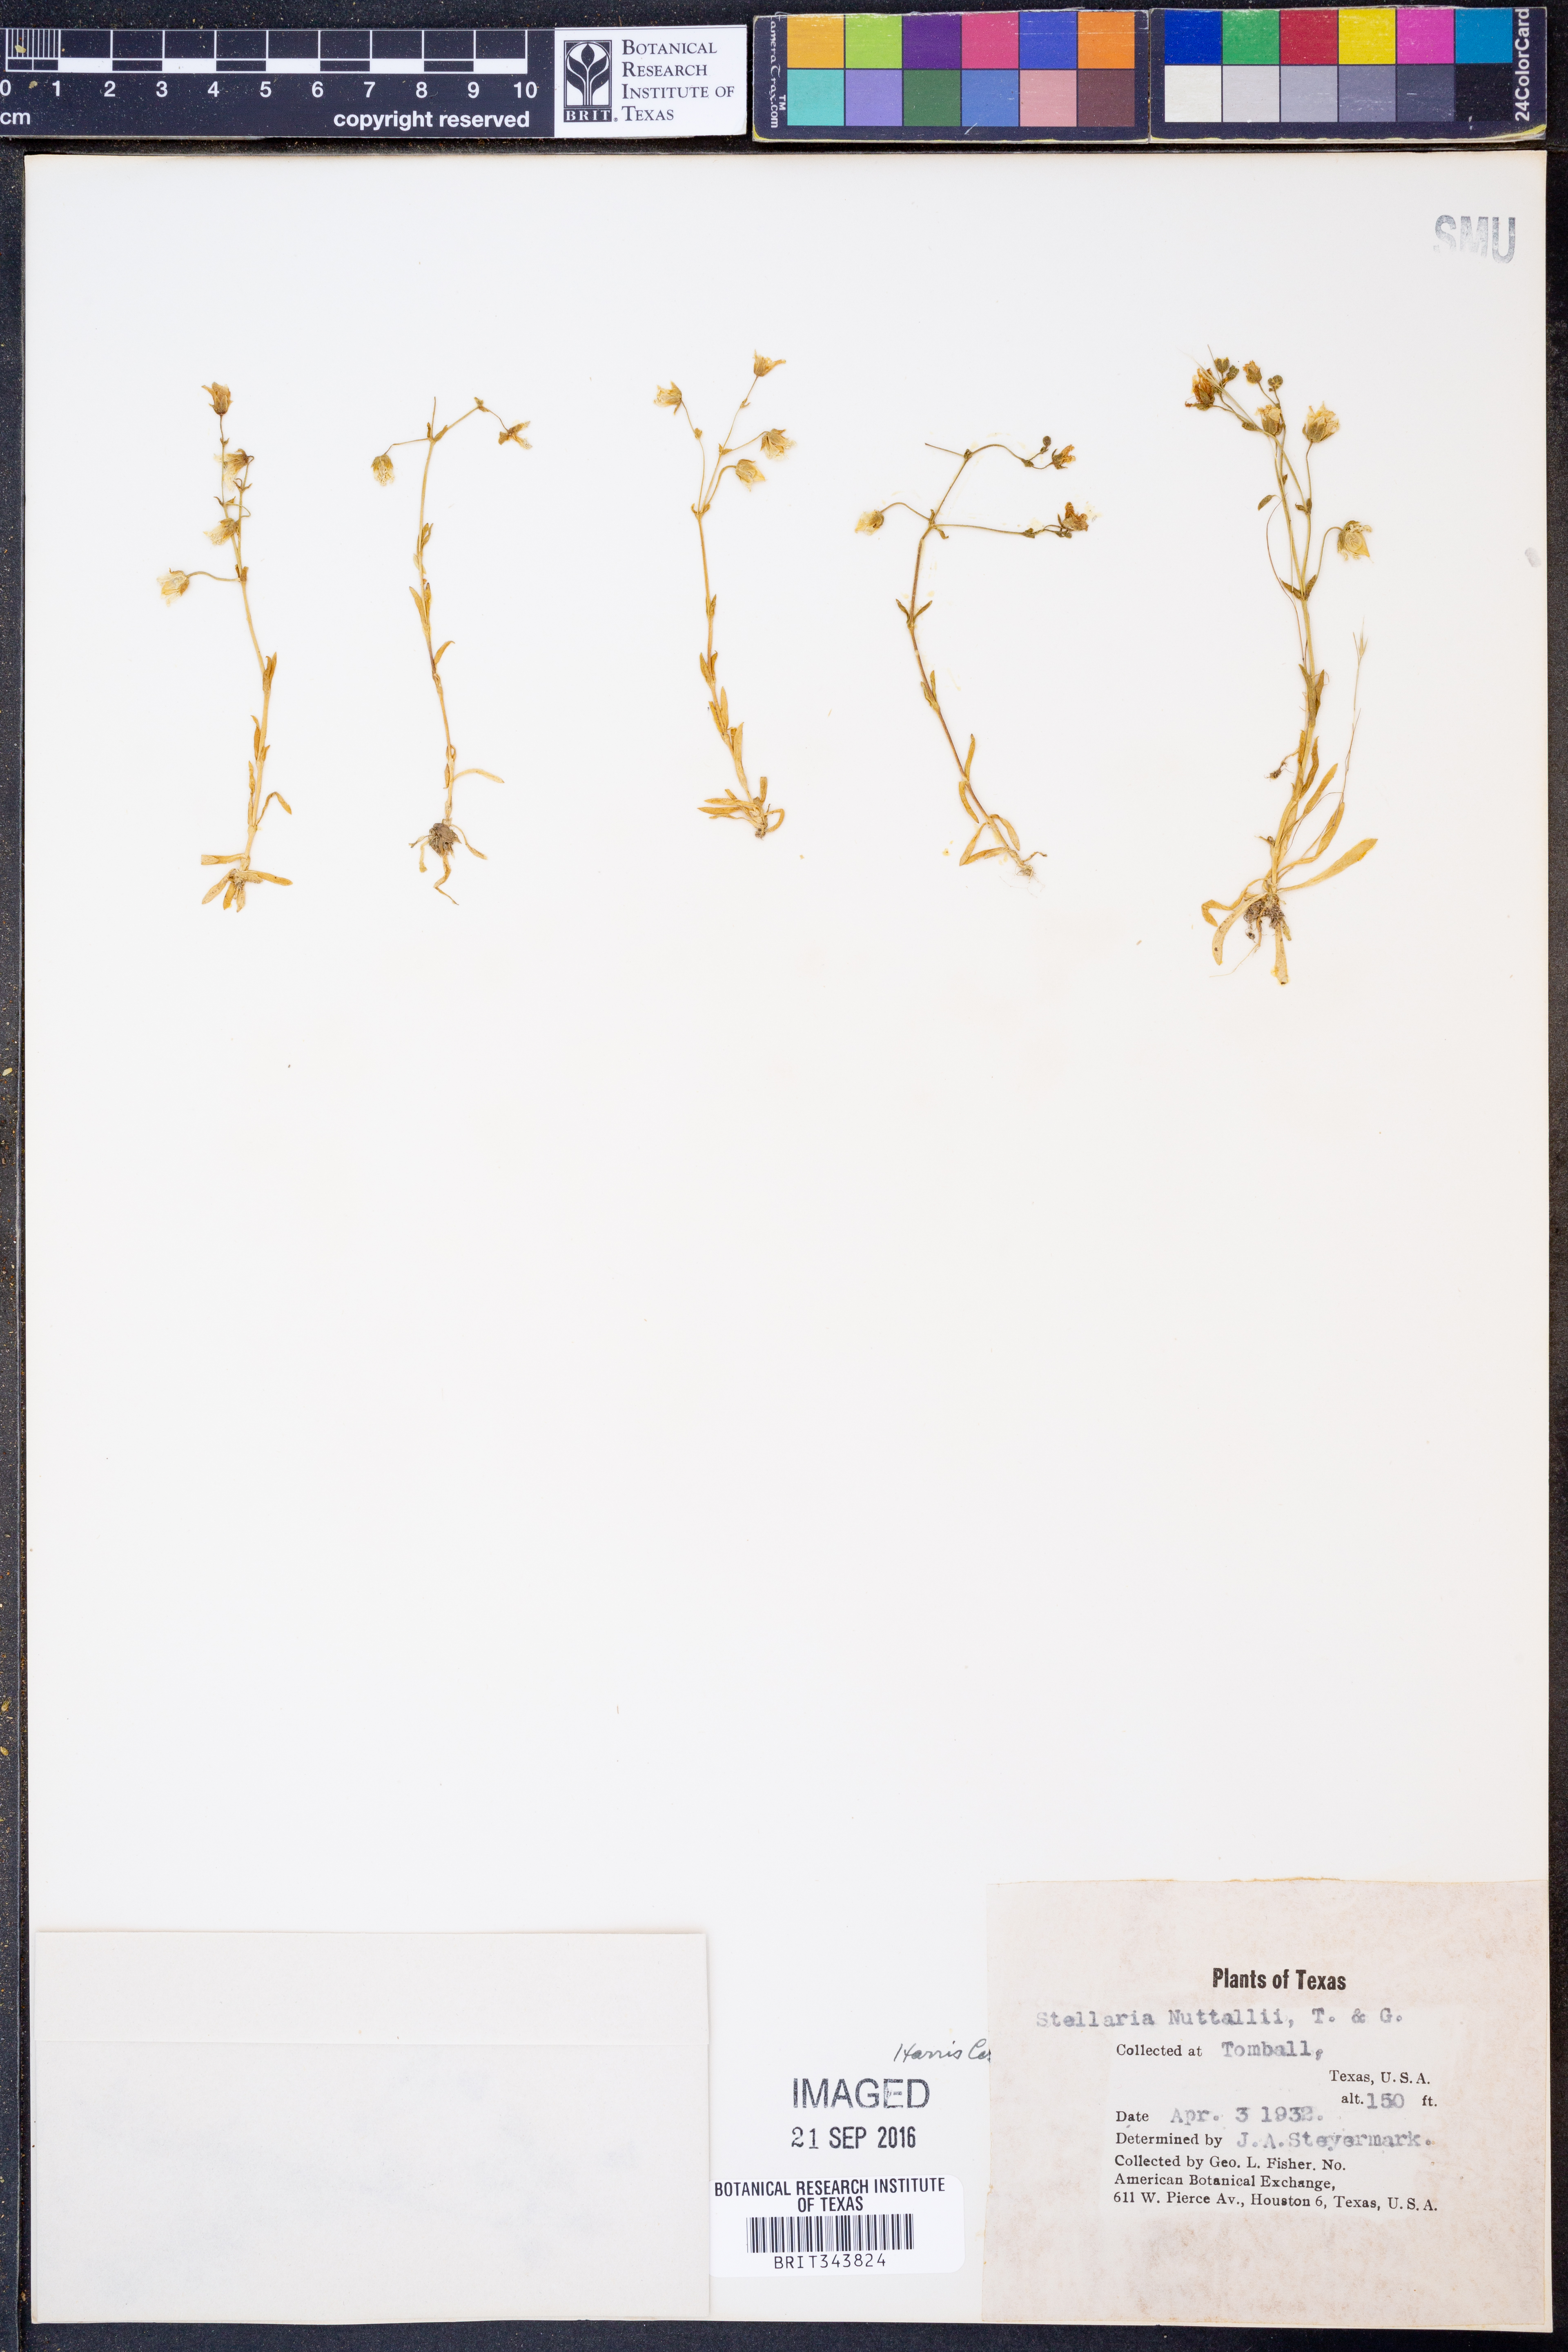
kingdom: Plantae
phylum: Tracheophyta
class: Magnoliopsida
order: Caryophyllales
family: Caryophyllaceae
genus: Geocarpon
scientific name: Geocarpon nuttallii
